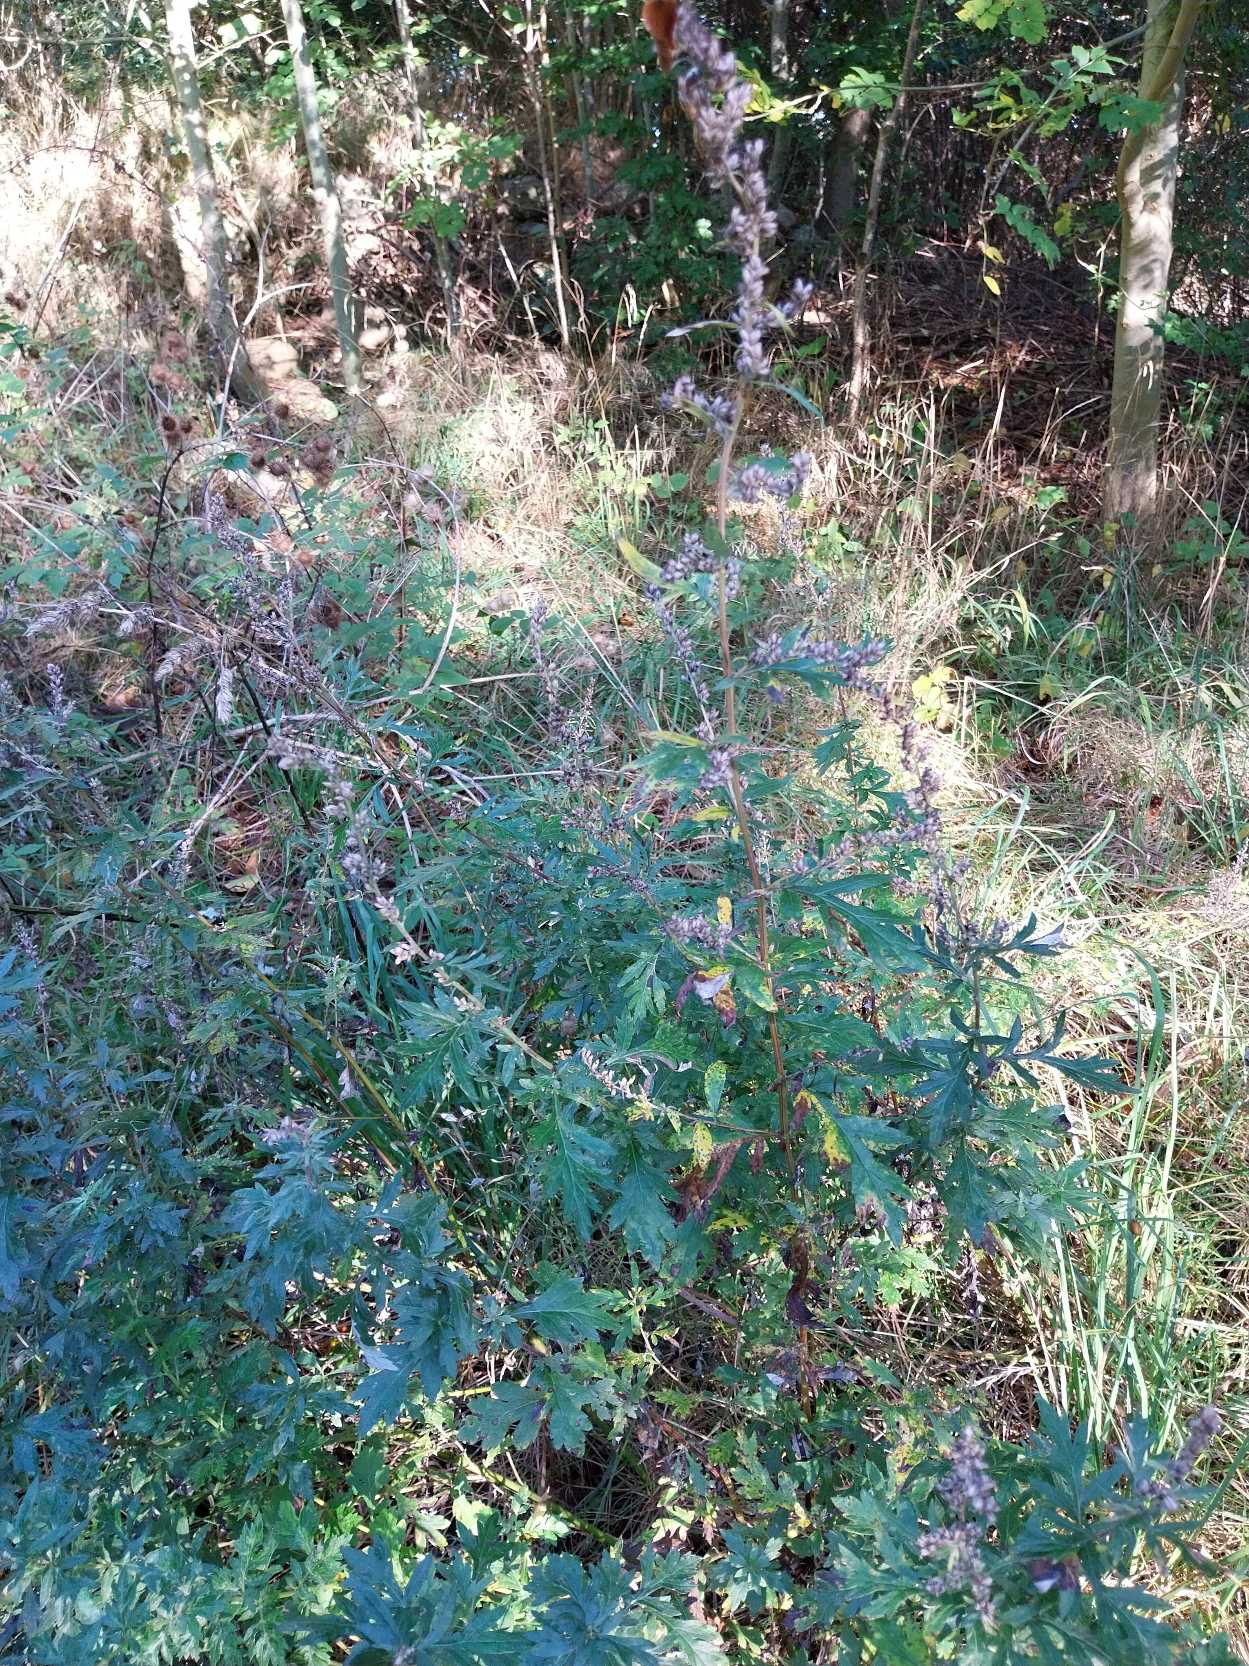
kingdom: Plantae
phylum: Tracheophyta
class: Magnoliopsida
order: Asterales
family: Asteraceae
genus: Artemisia
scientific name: Artemisia vulgaris
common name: Grå-bynke
